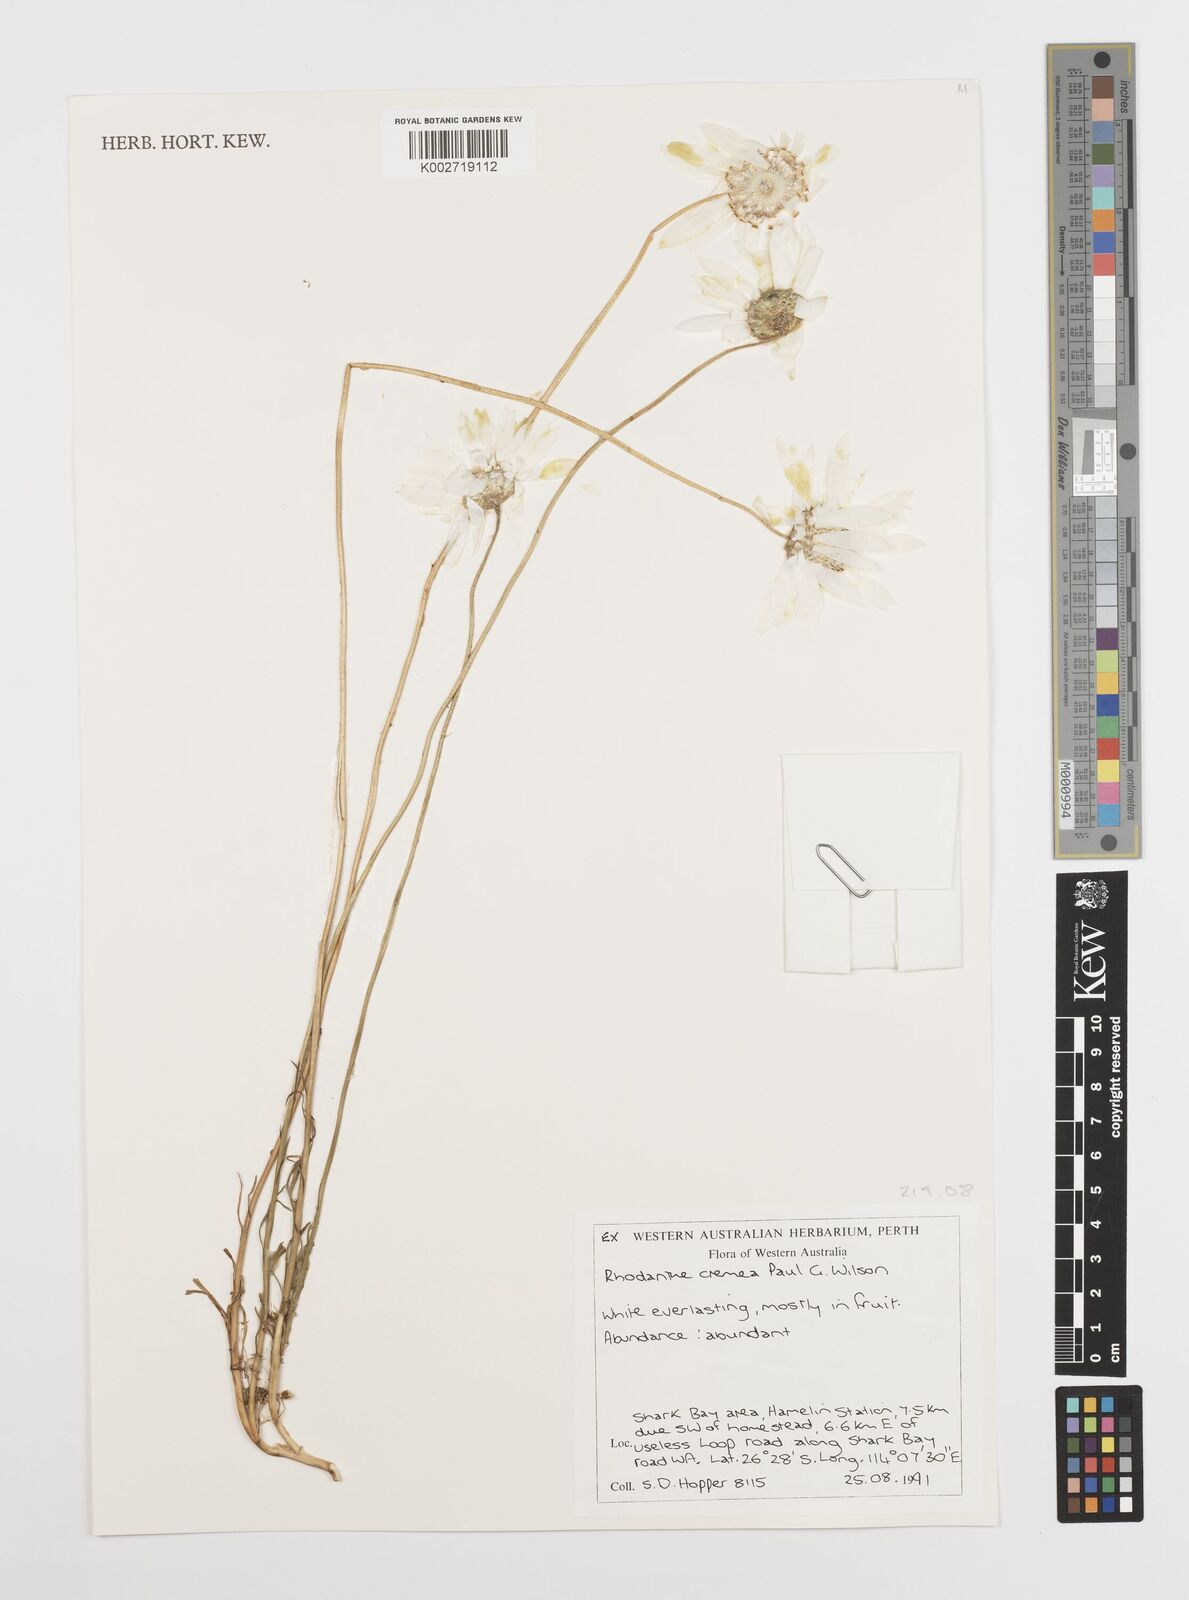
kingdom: Plantae
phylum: Tracheophyta
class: Magnoliopsida
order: Asterales
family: Asteraceae
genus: Rhodanthe
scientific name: Rhodanthe cremea
